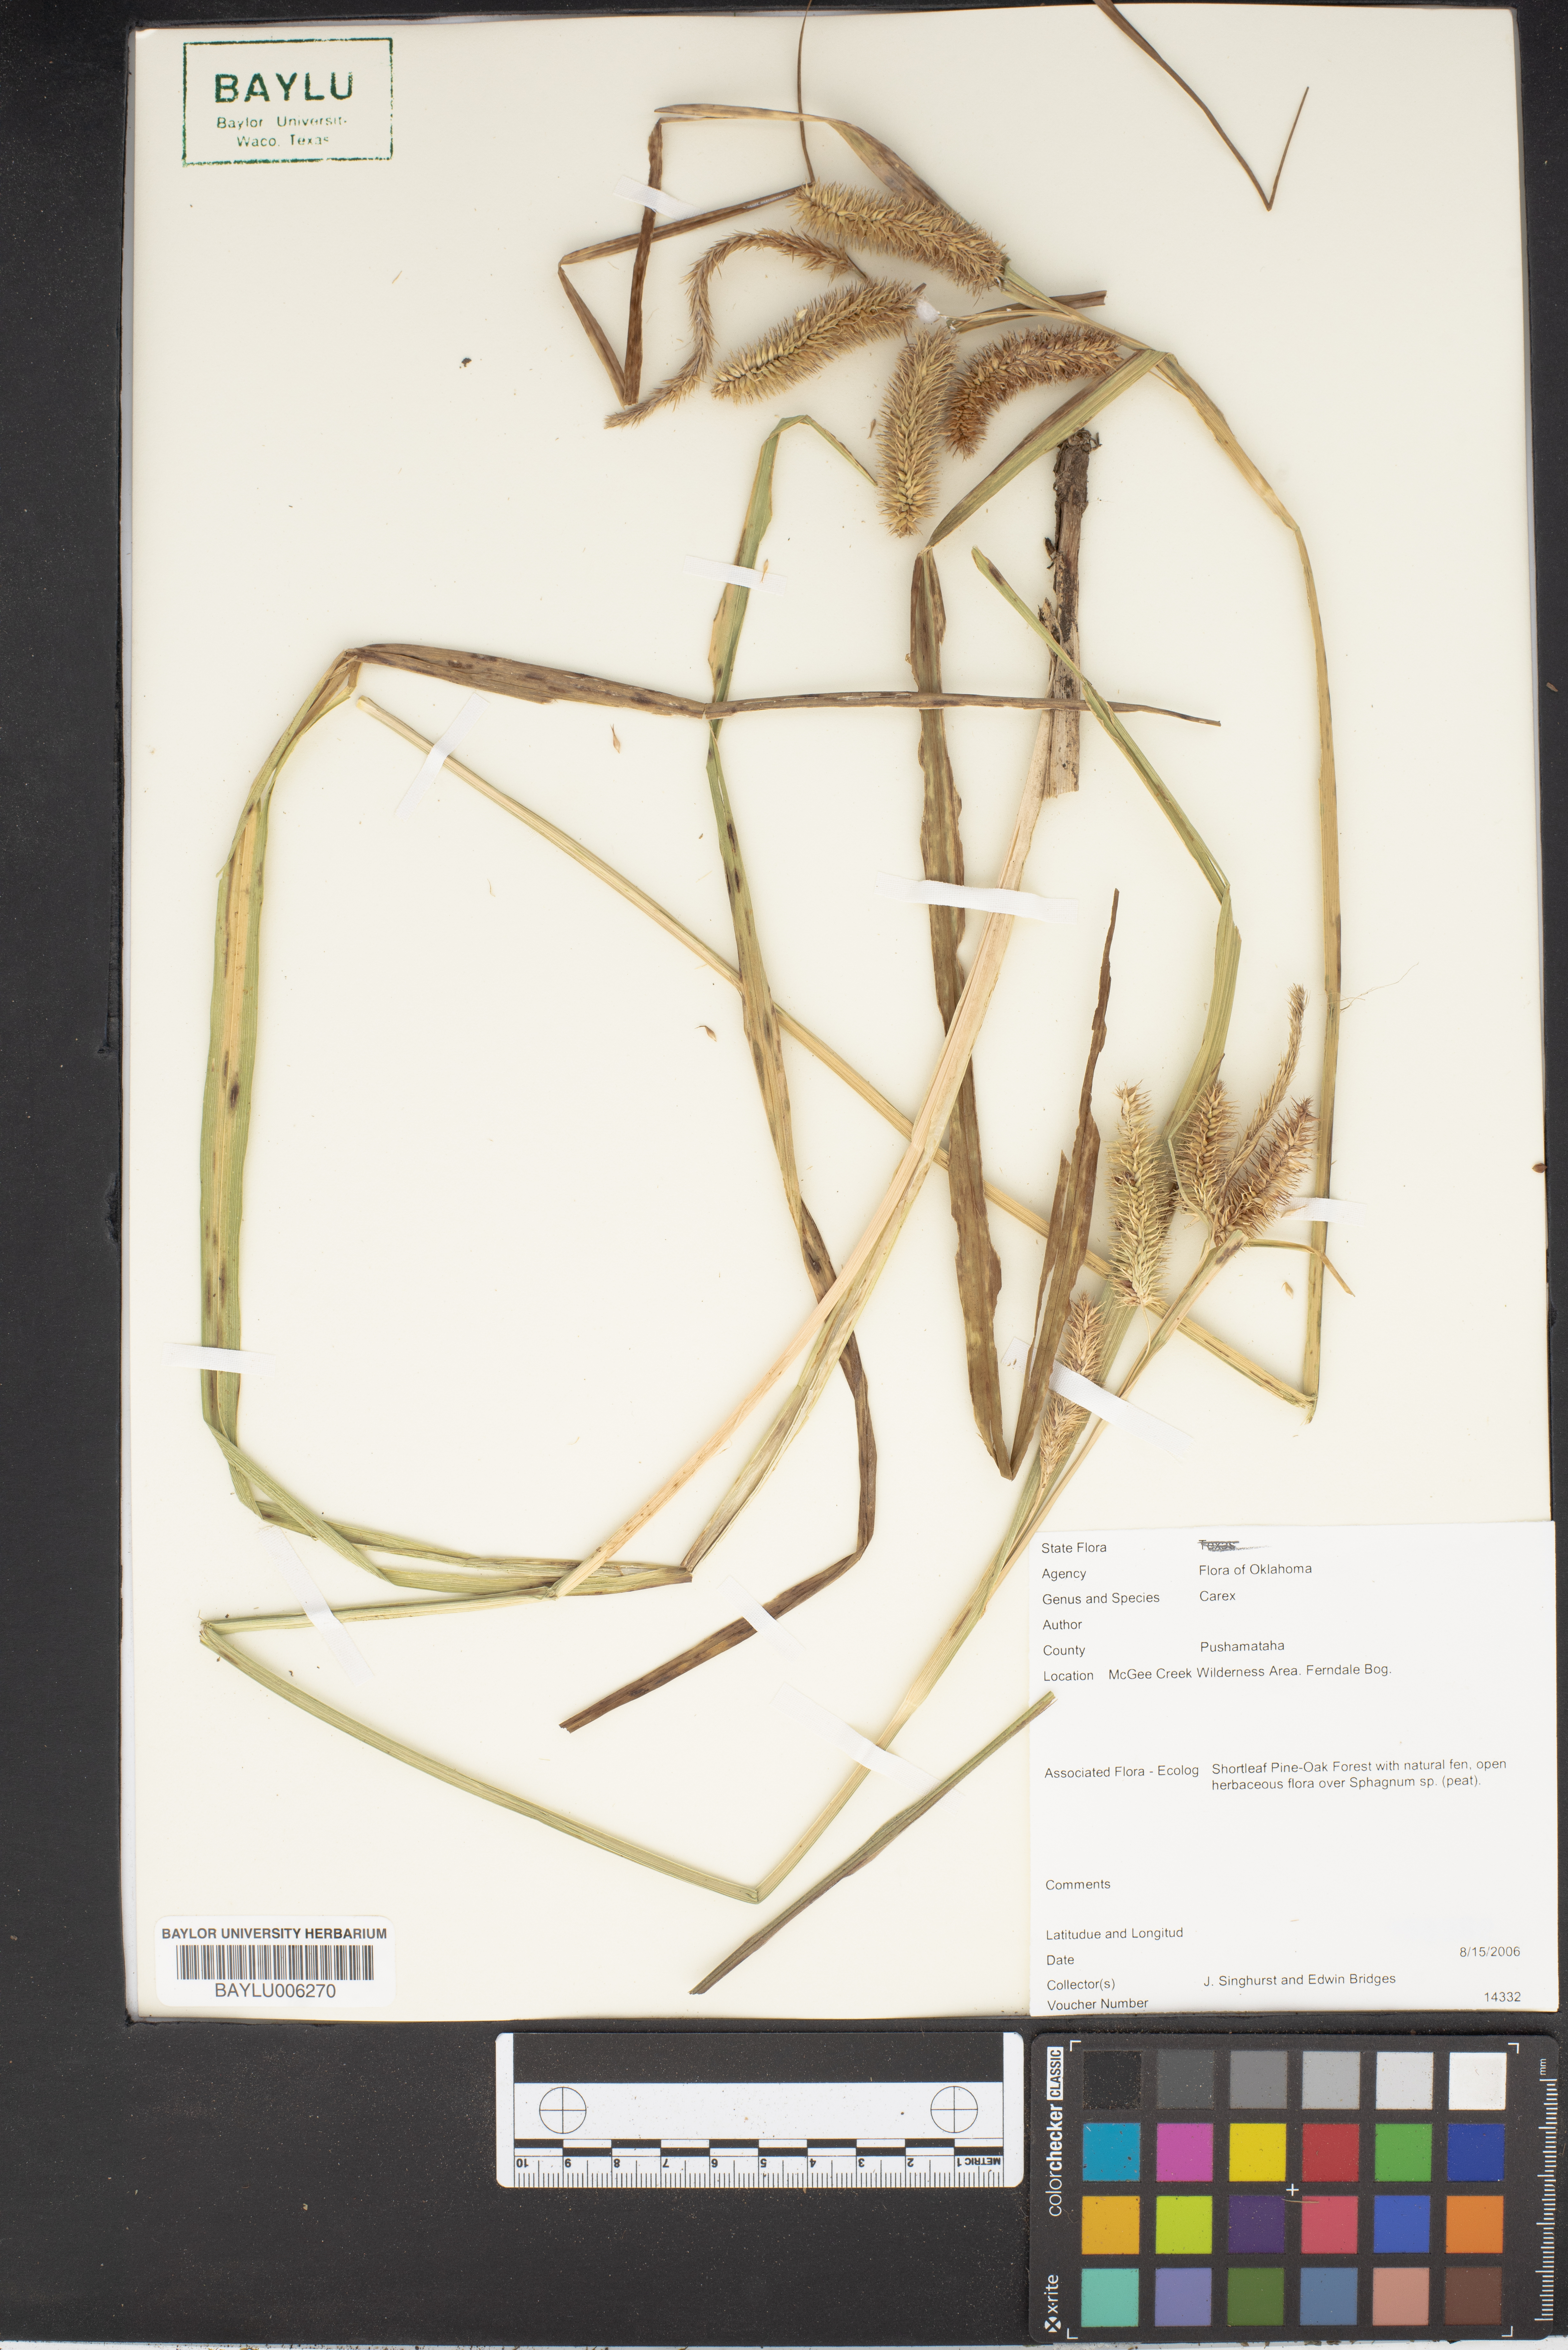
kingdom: Plantae
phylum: Tracheophyta
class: Liliopsida
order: Poales
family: Cyperaceae
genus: Carex
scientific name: Carex
